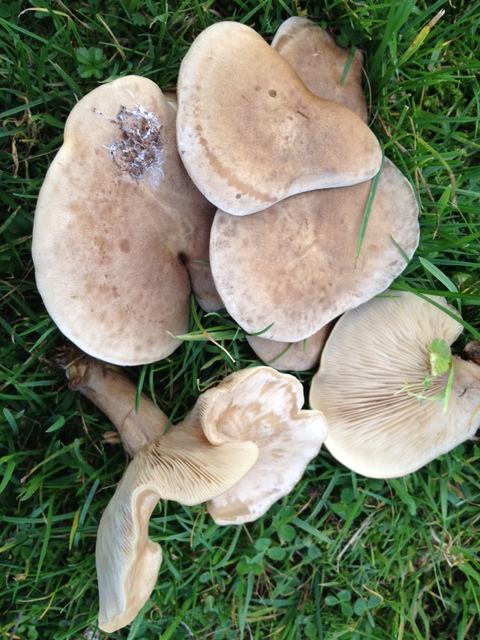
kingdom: Fungi
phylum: Basidiomycota
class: Agaricomycetes
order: Agaricales
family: Tricholomataceae
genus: Lepista
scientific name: Lepista panaeolus
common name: marmoreret hekseringshat
